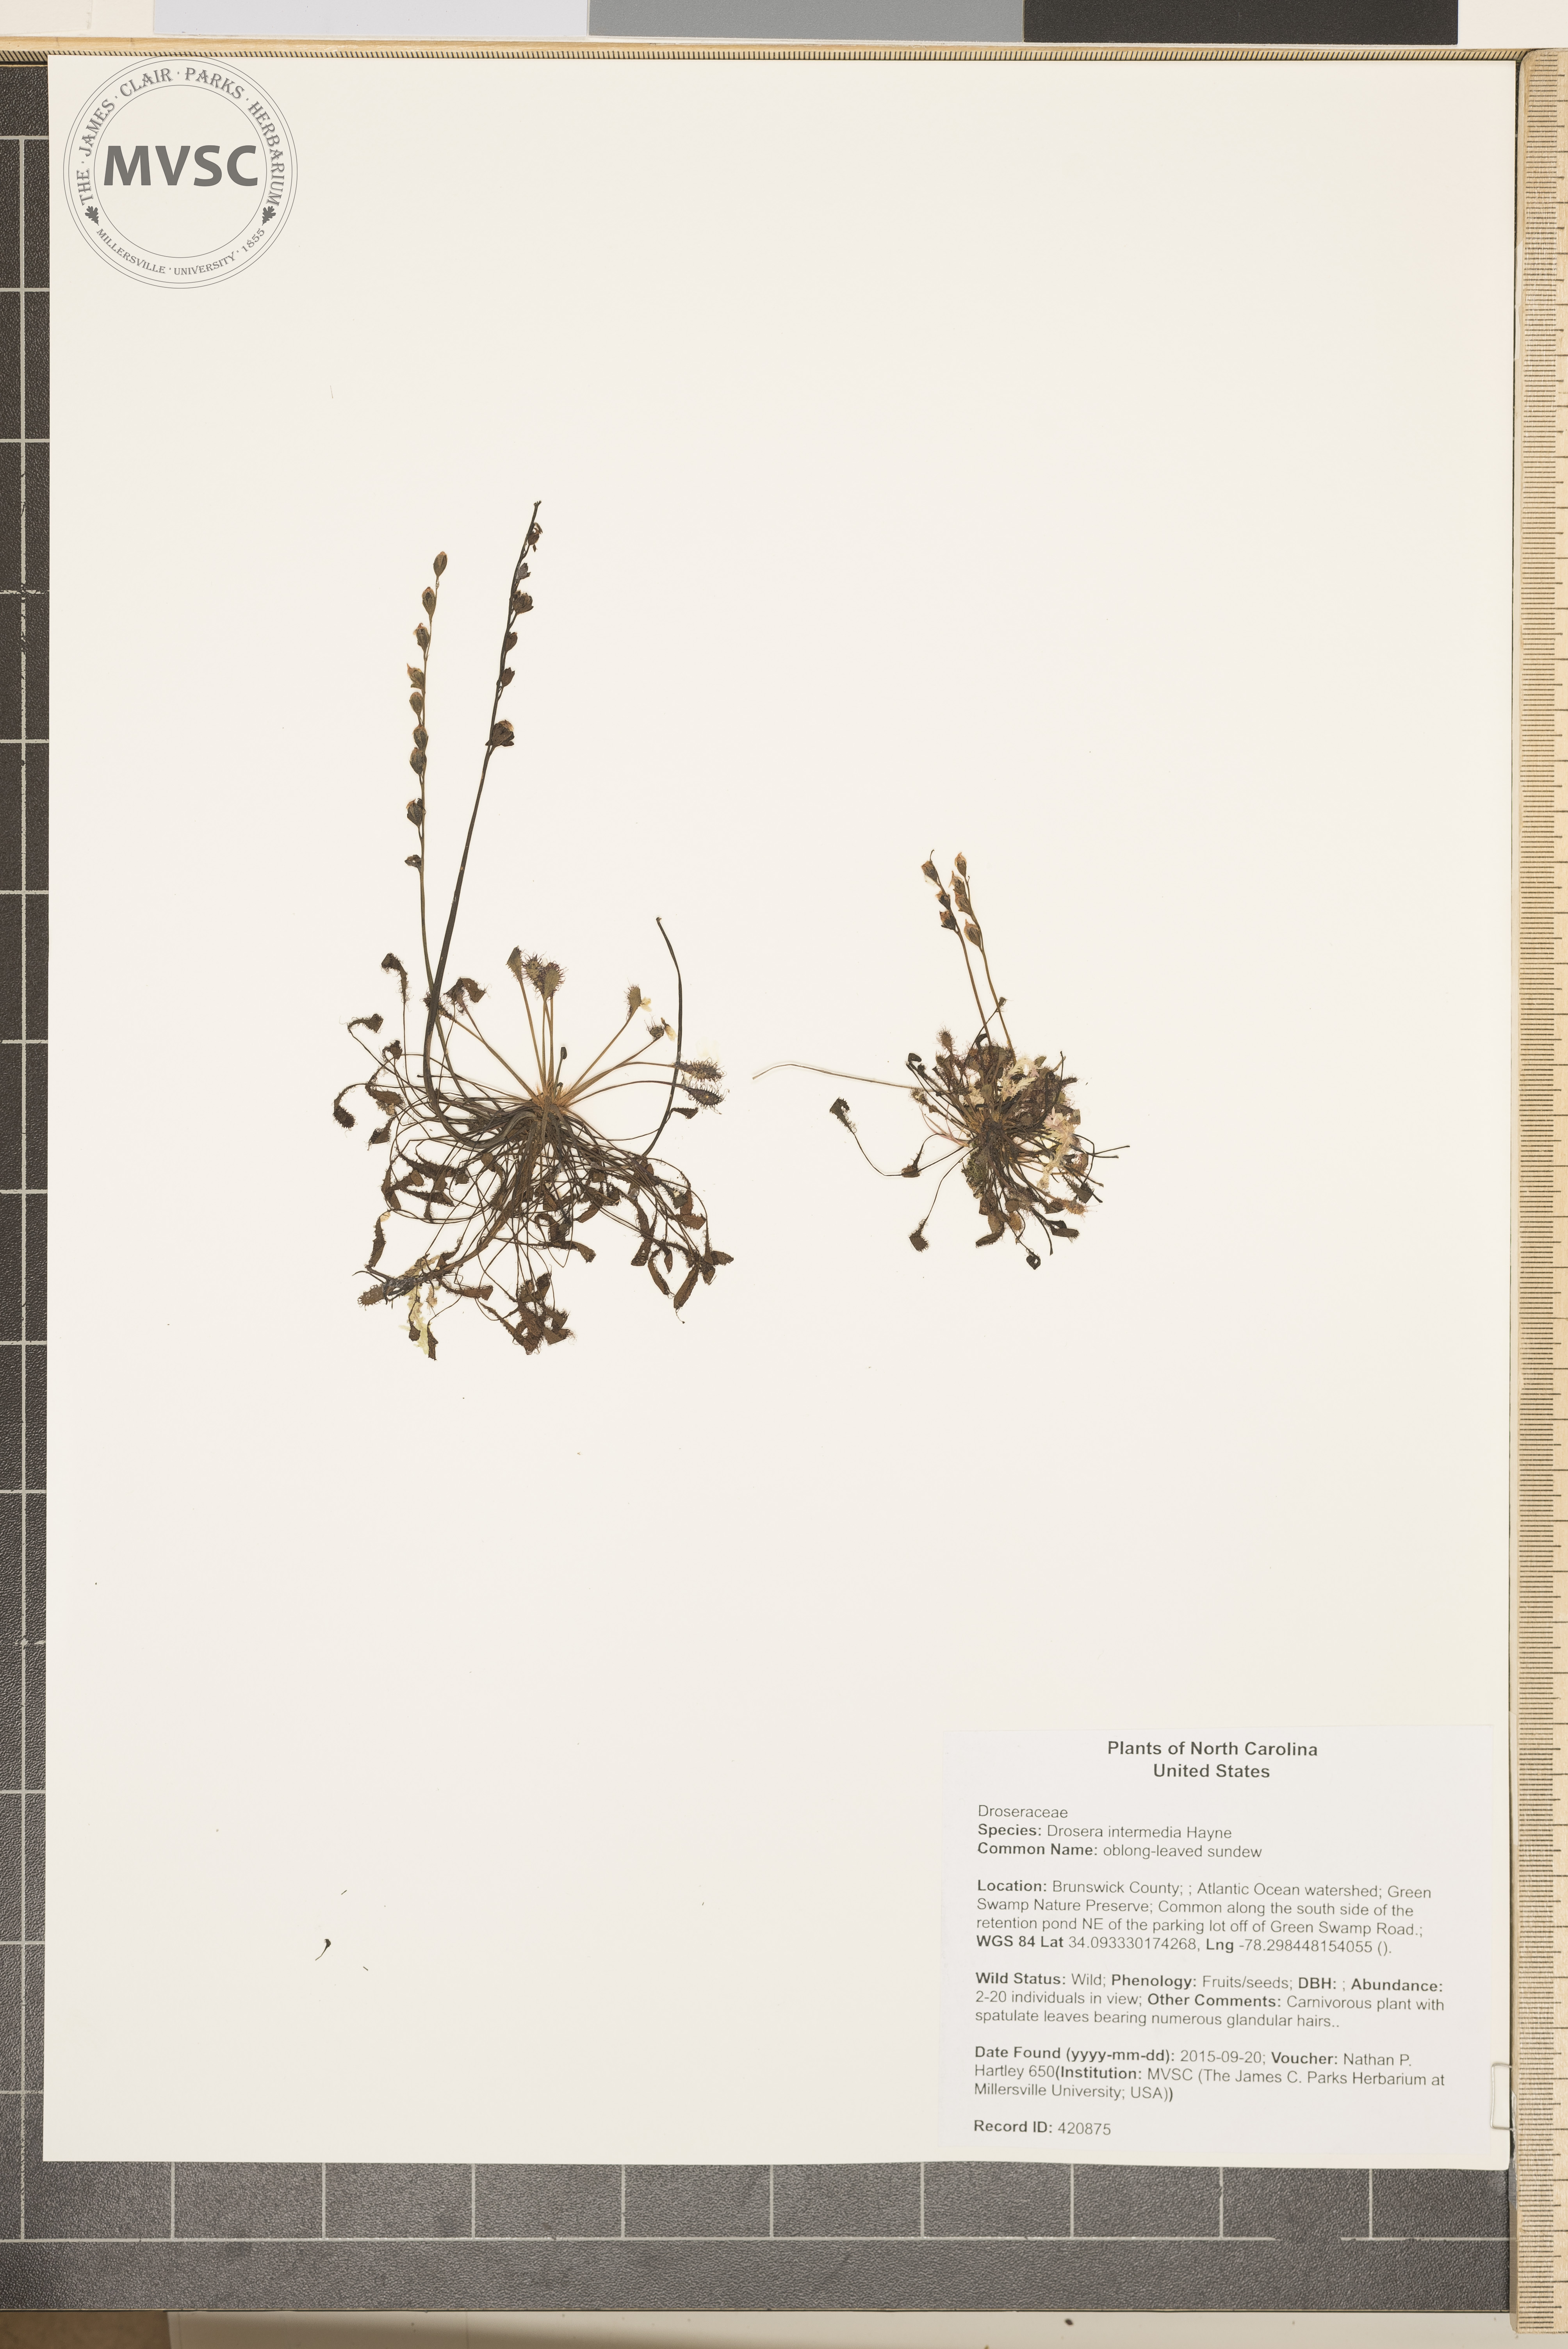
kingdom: Plantae
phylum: Tracheophyta
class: Magnoliopsida
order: Caryophyllales
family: Droseraceae
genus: Drosera
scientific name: Drosera intermedia
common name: oblong-leaved sundew
